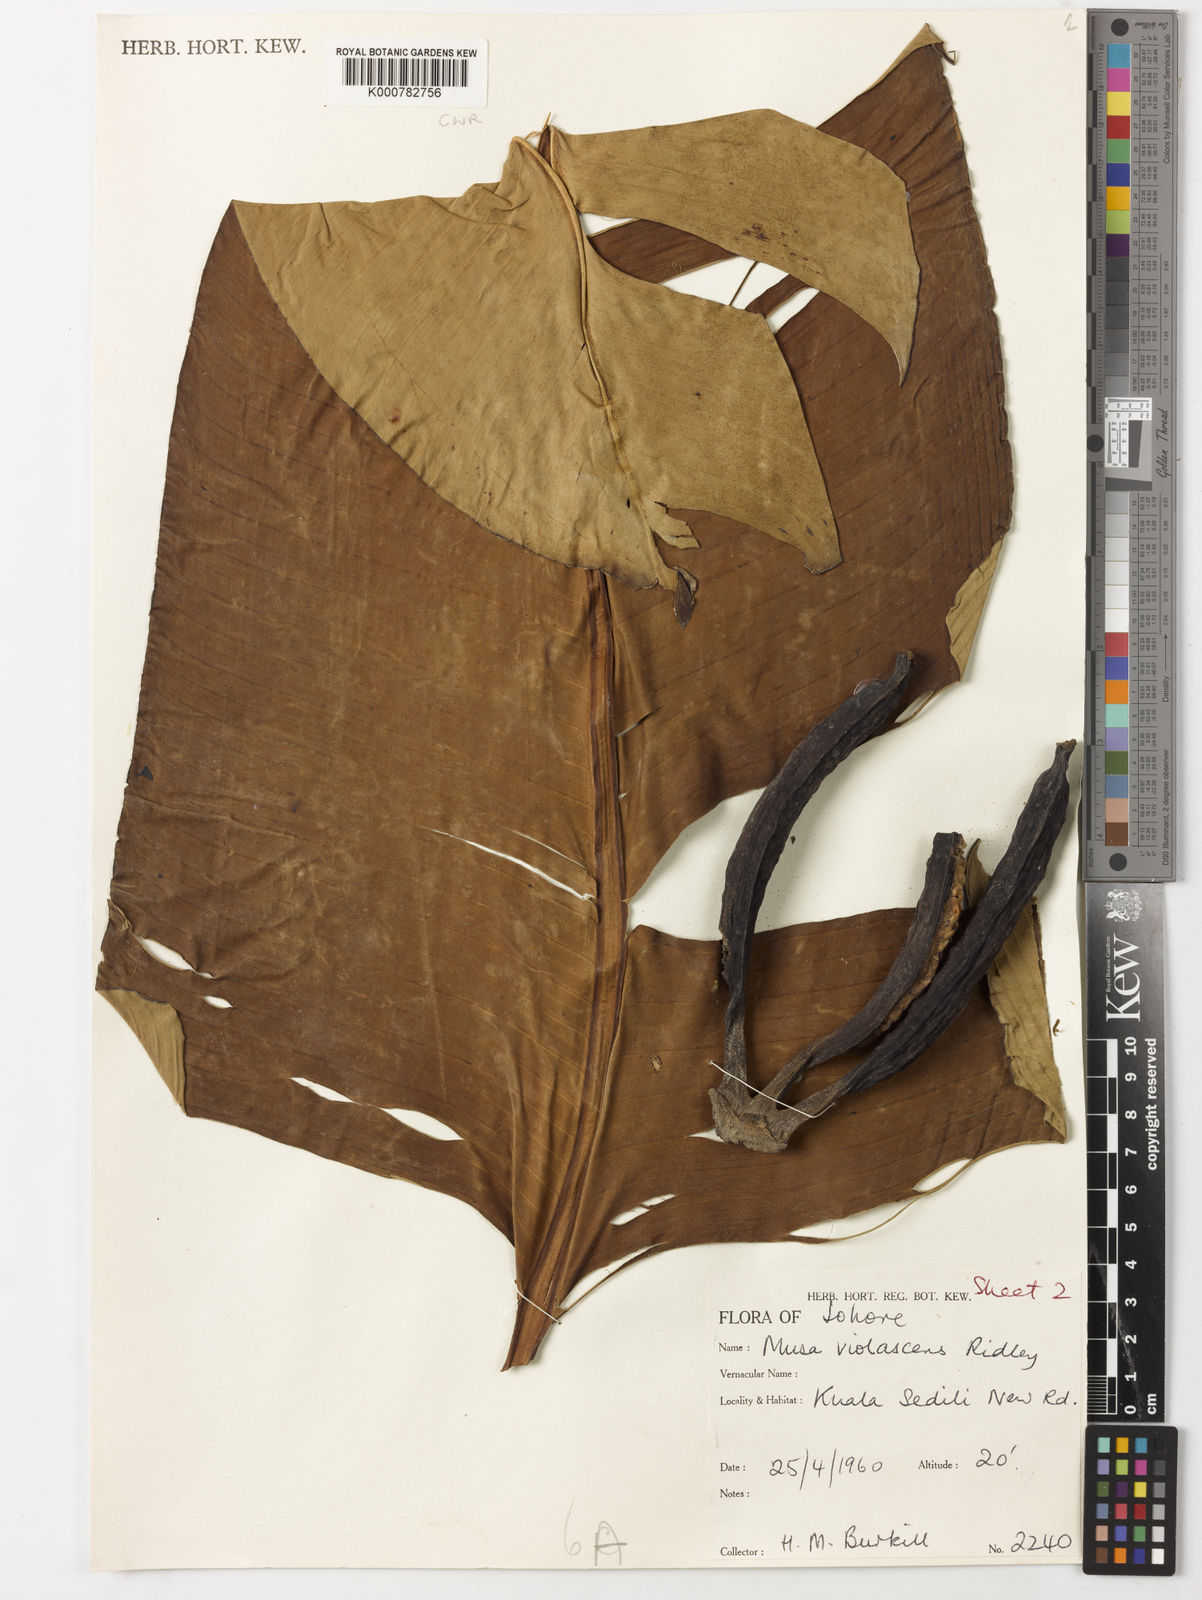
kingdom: Plantae
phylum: Tracheophyta
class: Liliopsida
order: Zingiberales
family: Musaceae
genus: Musa
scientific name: Musa violascens
